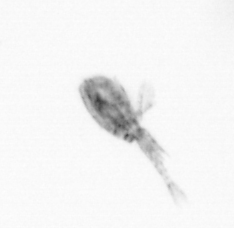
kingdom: Animalia
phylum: Arthropoda
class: Copepoda
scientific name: Copepoda
